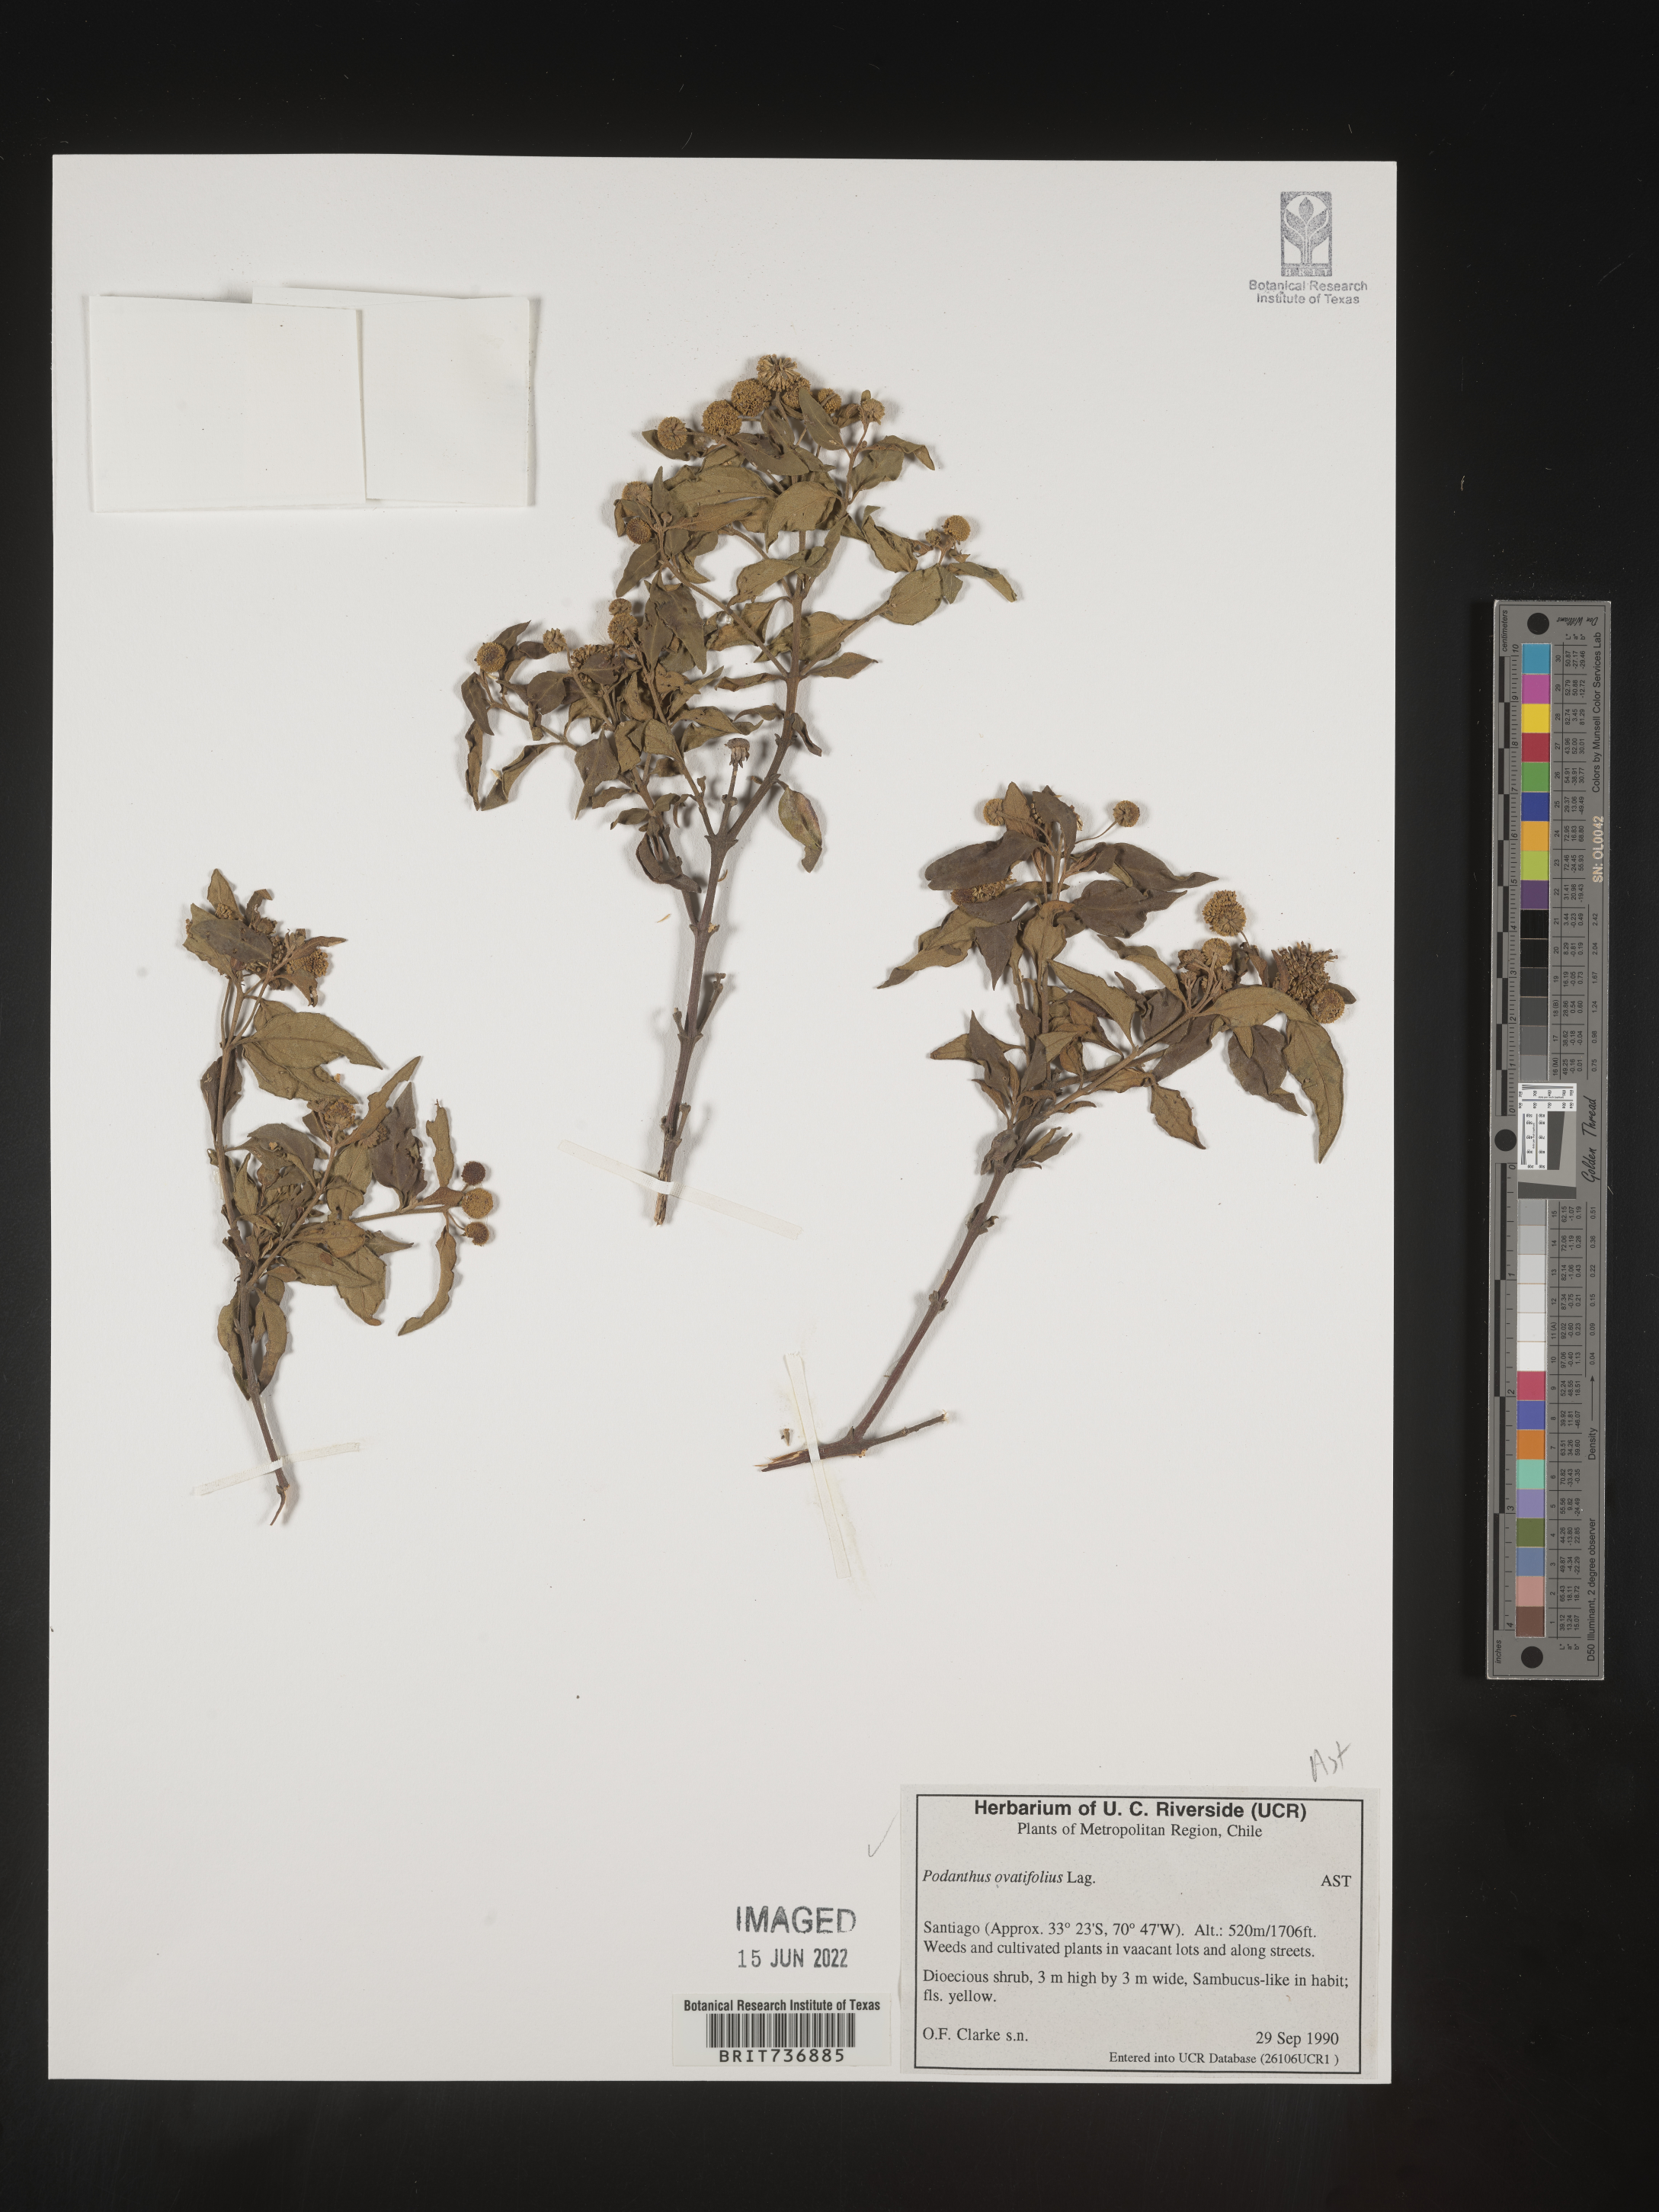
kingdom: Plantae
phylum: Tracheophyta
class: Magnoliopsida
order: Asterales
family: Asteraceae
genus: Podanthus
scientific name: Podanthus
